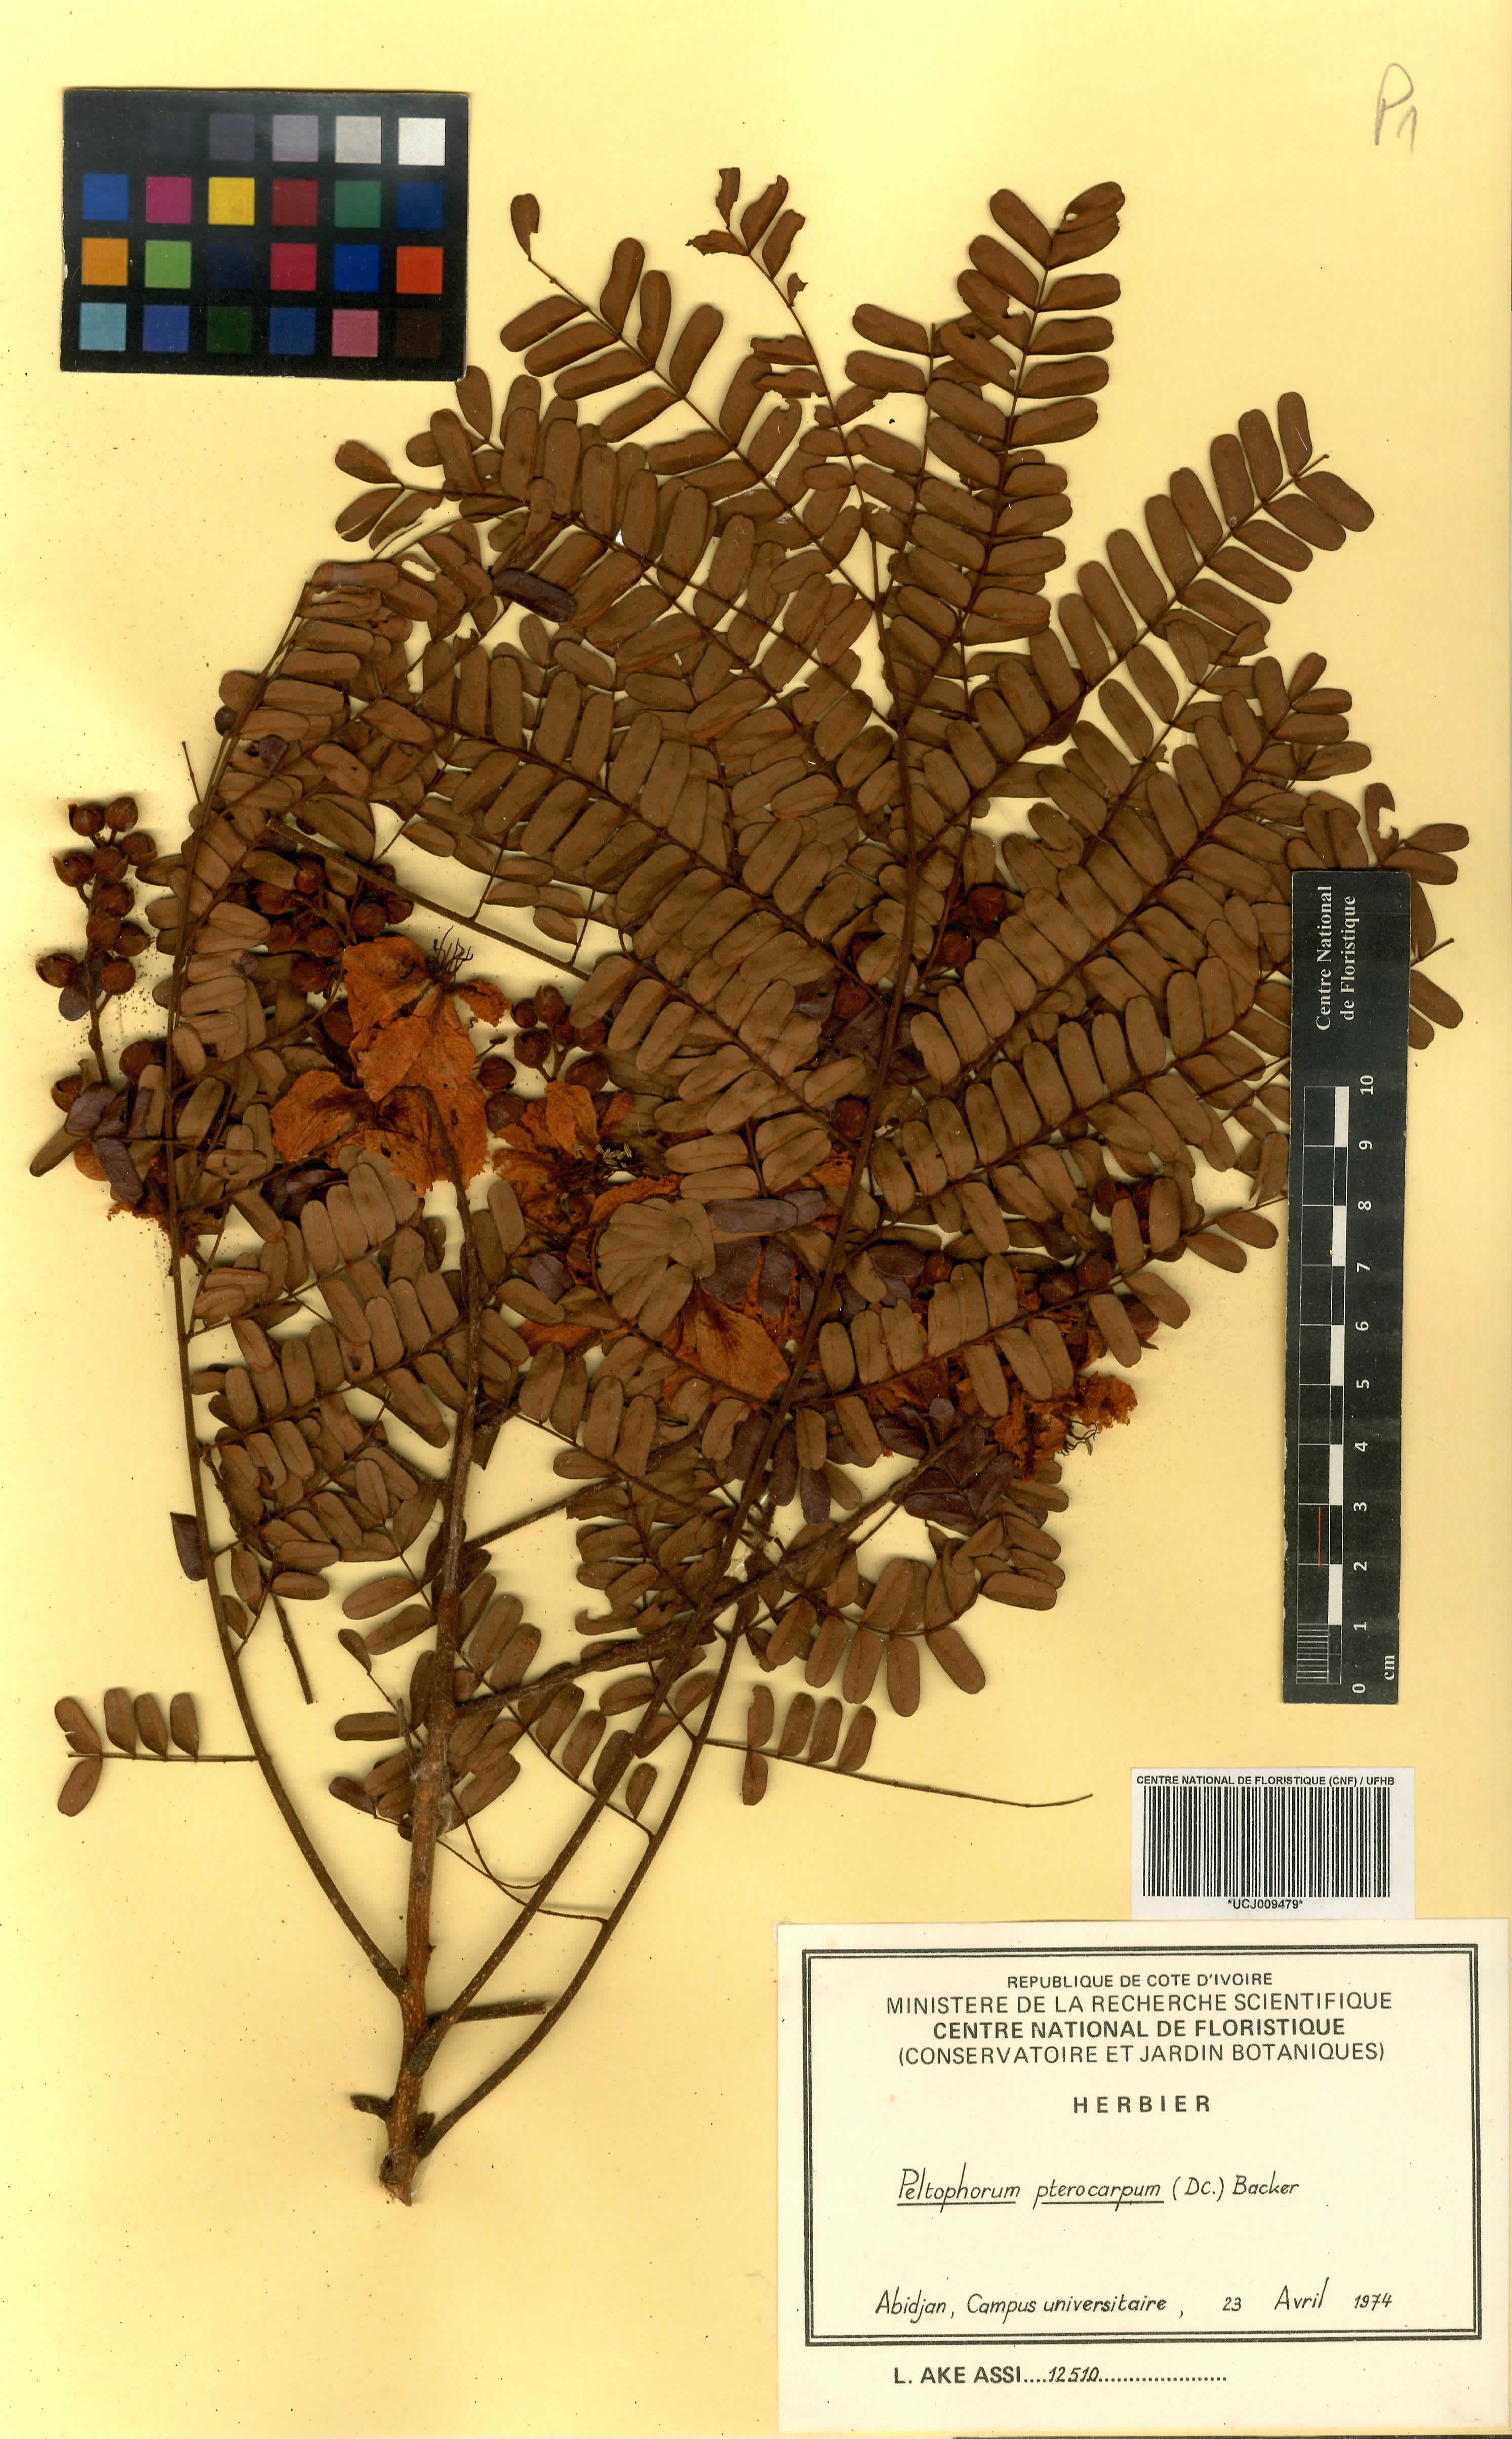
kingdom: Plantae
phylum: Tracheophyta
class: Magnoliopsida
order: Fabales
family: Fabaceae
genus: Peltophorum
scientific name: Peltophorum pterocarpum
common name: Yellow flame
